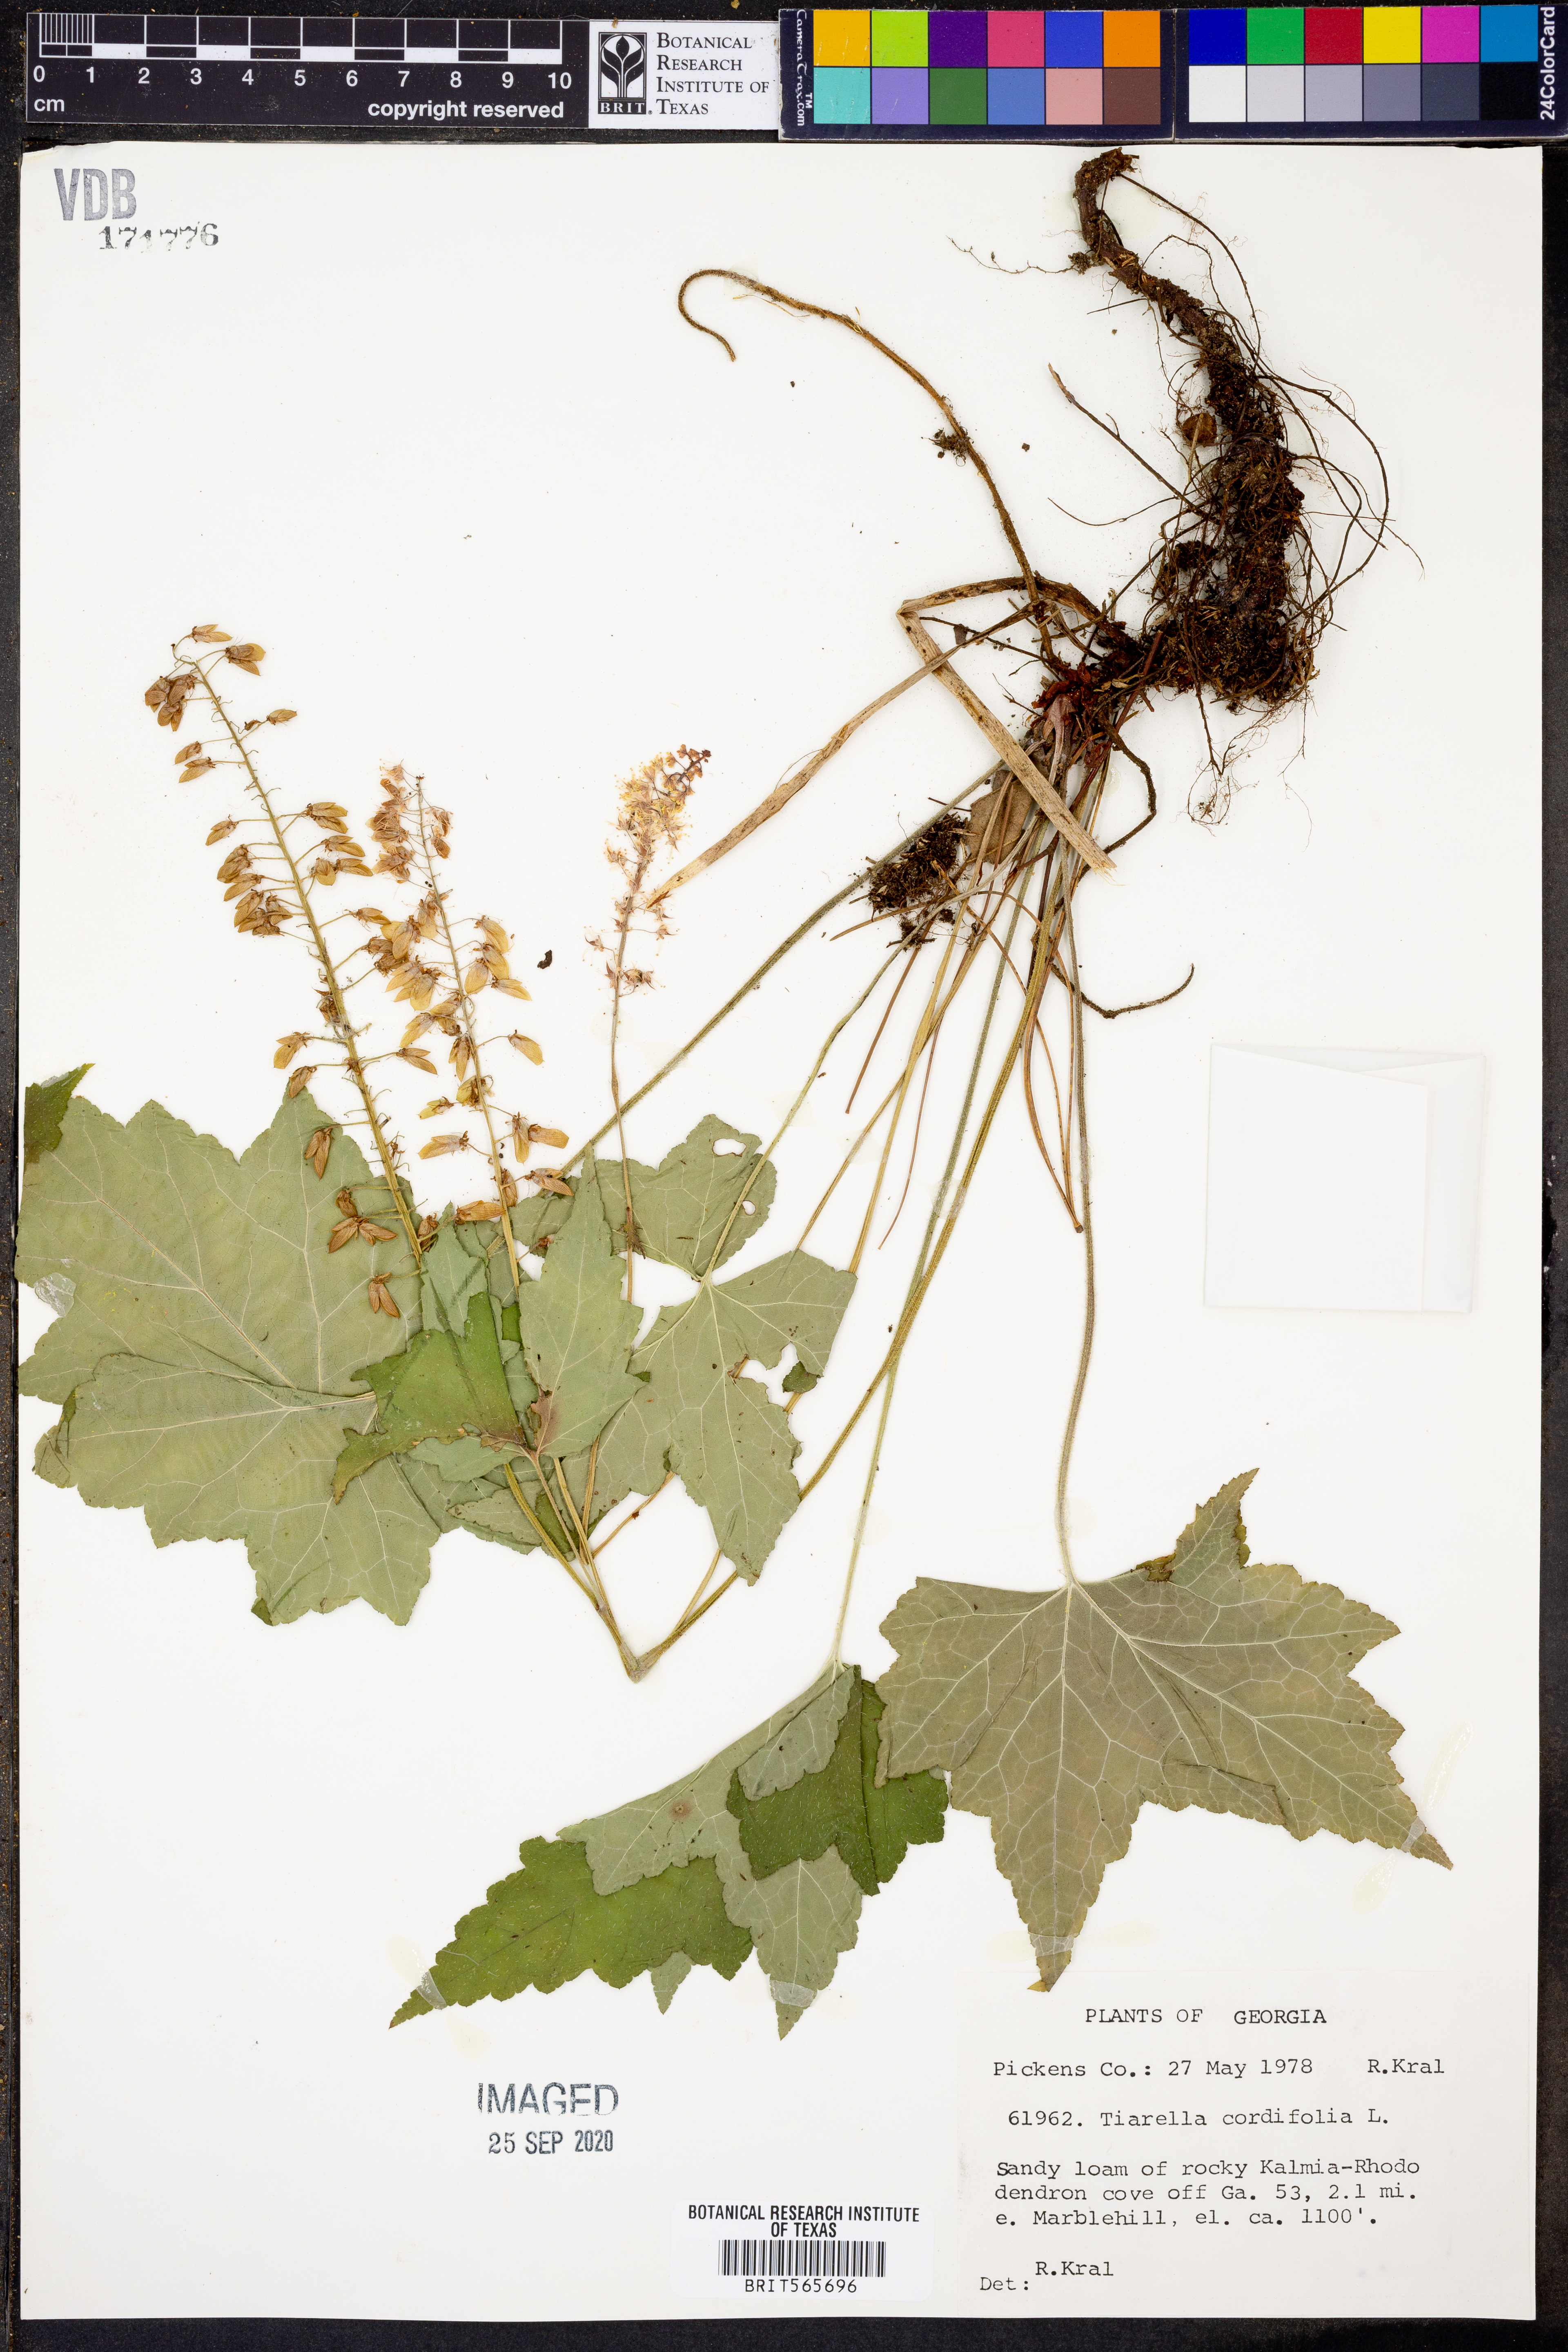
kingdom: Plantae
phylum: Tracheophyta
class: Magnoliopsida
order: Saxifragales
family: Saxifragaceae
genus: Tiarella
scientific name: Tiarella cordifolia
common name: Foamflower
